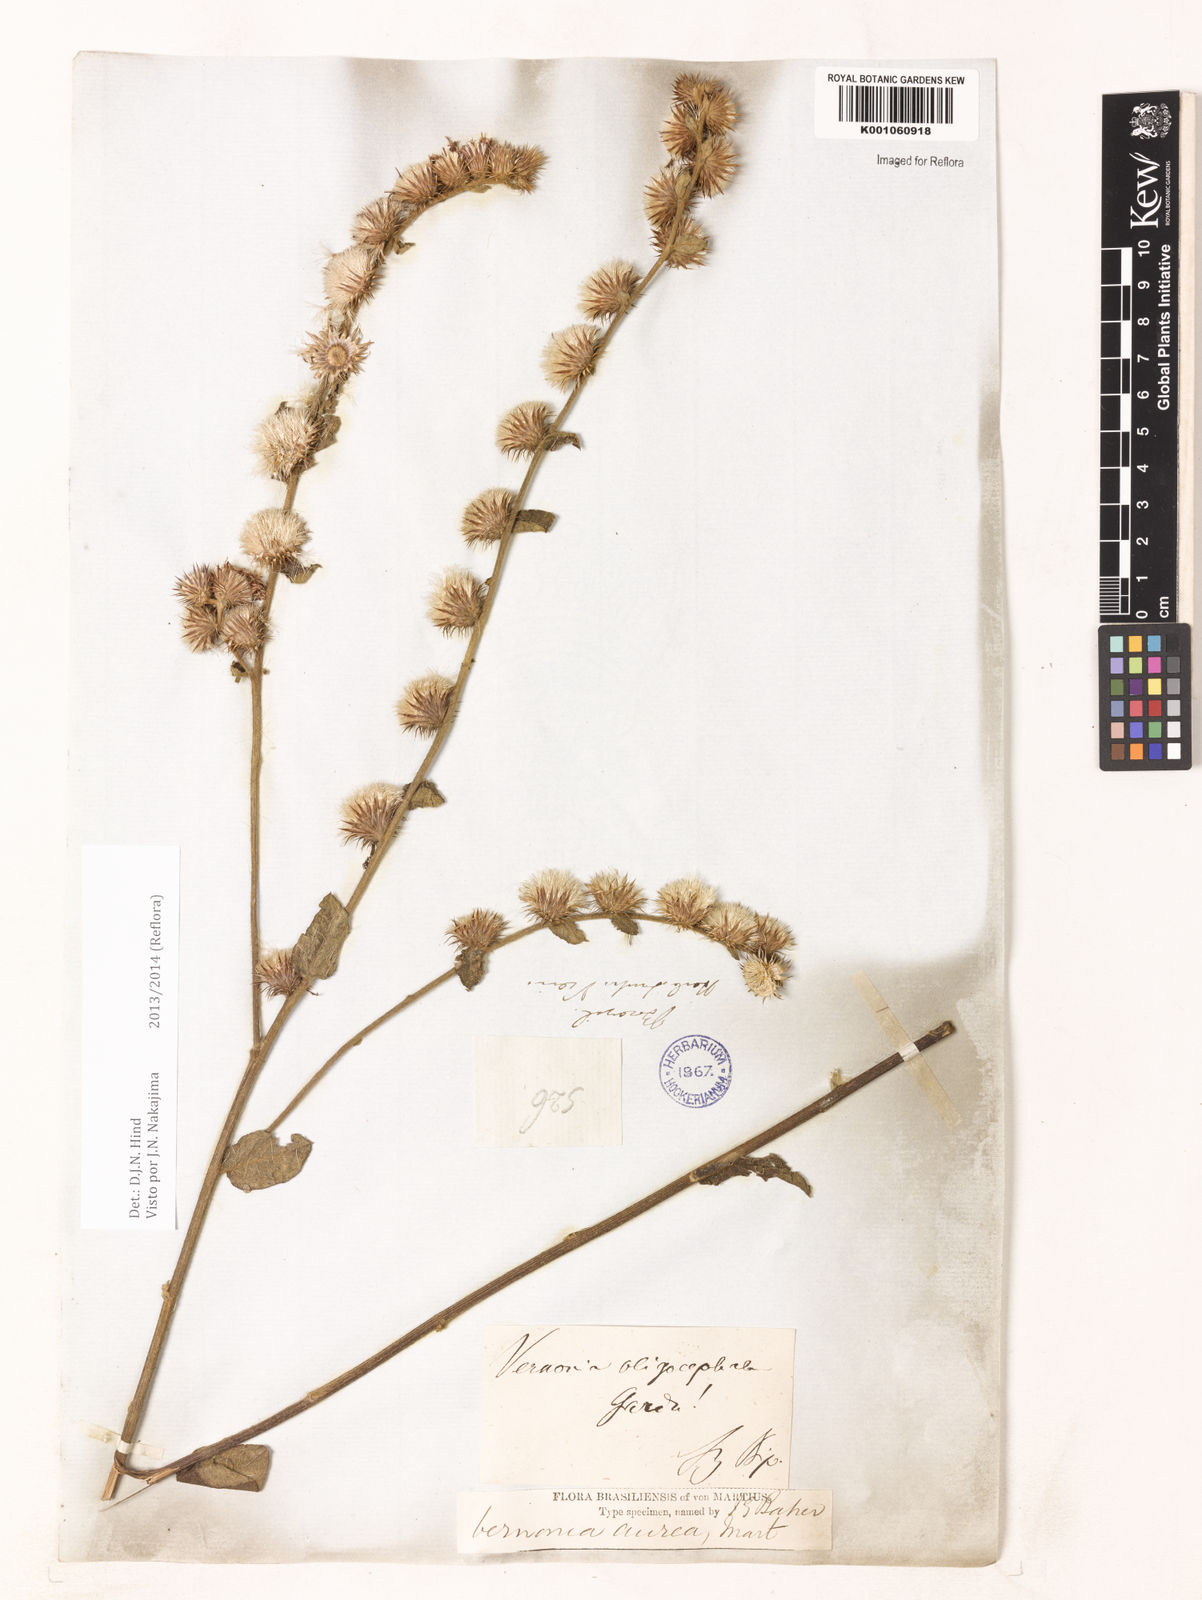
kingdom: Plantae
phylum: Tracheophyta
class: Magnoliopsida
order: Asterales
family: Asteraceae
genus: Lepidaploa
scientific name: Lepidaploa aurea
